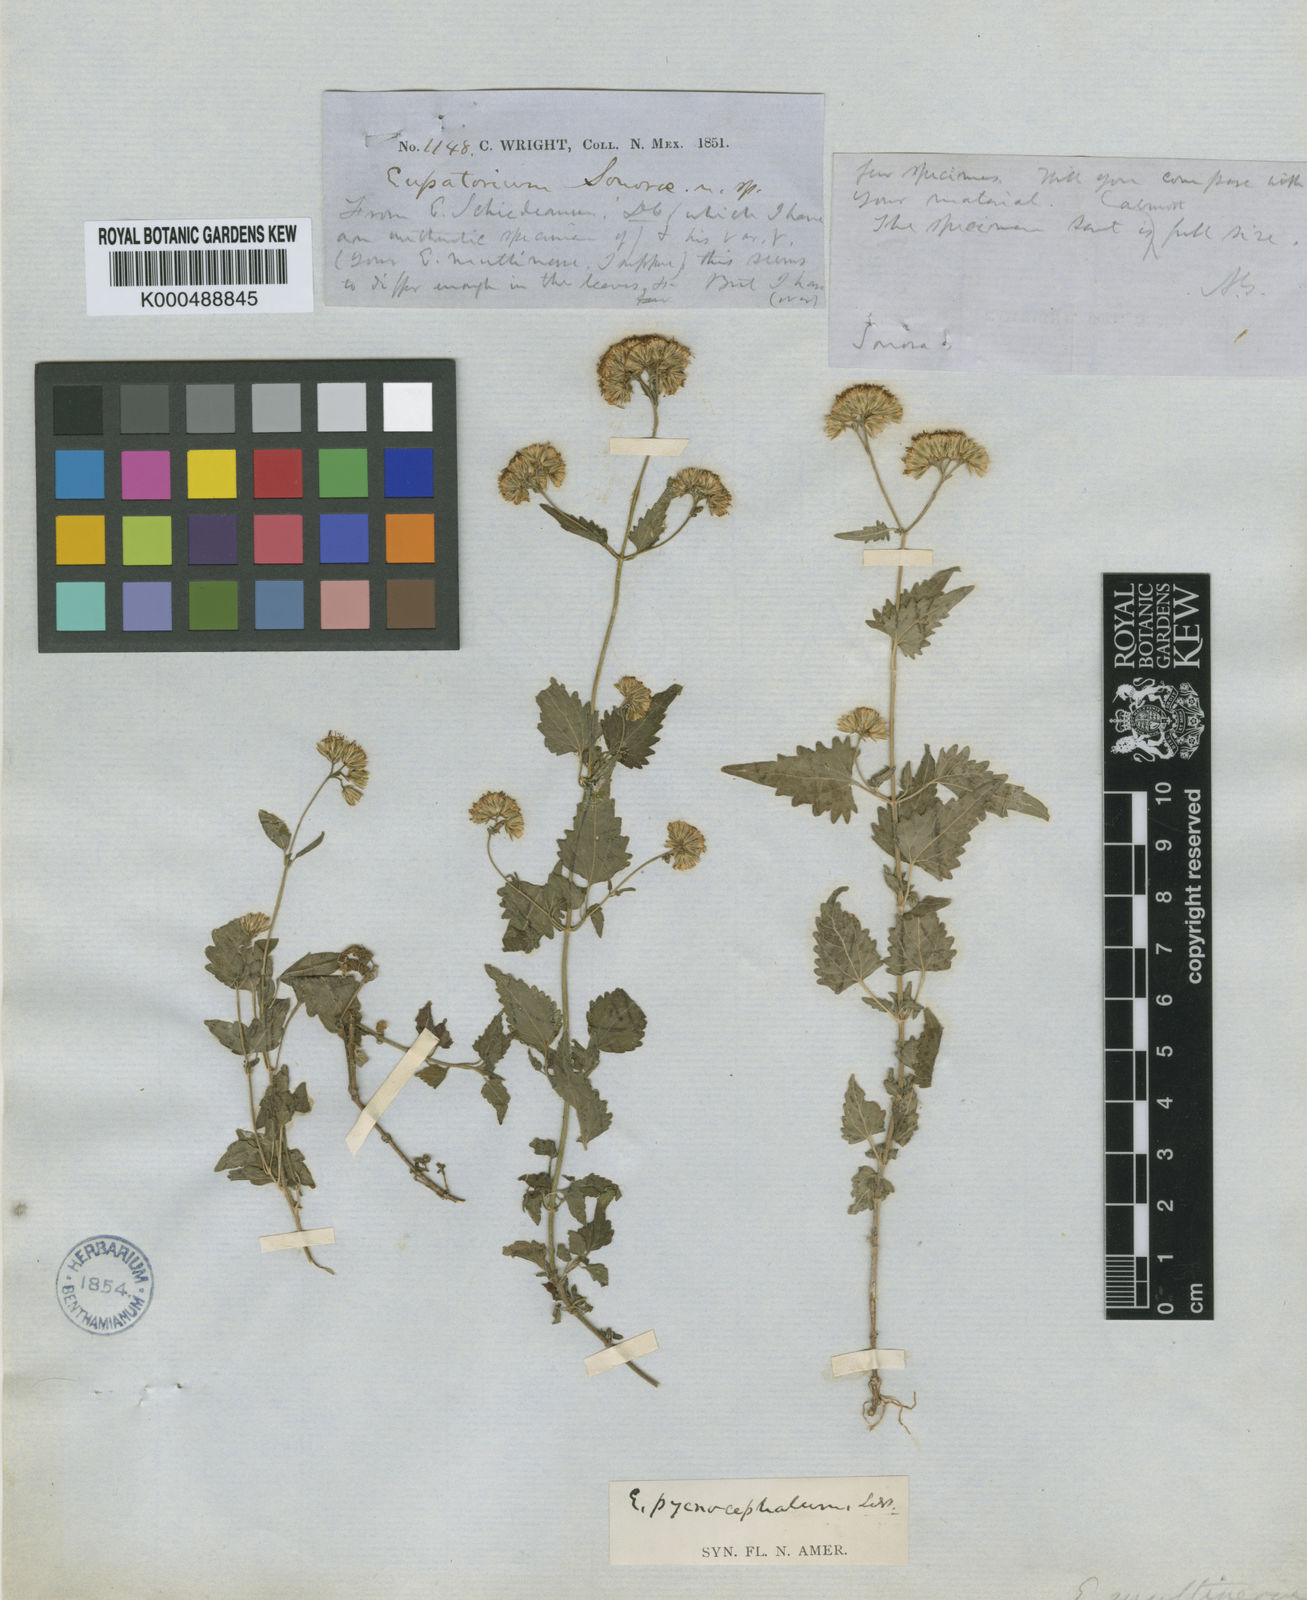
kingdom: Plantae
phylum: Tracheophyta
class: Magnoliopsida
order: Asterales
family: Asteraceae
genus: Fleischmannia
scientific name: Fleischmannia pycnocephala
